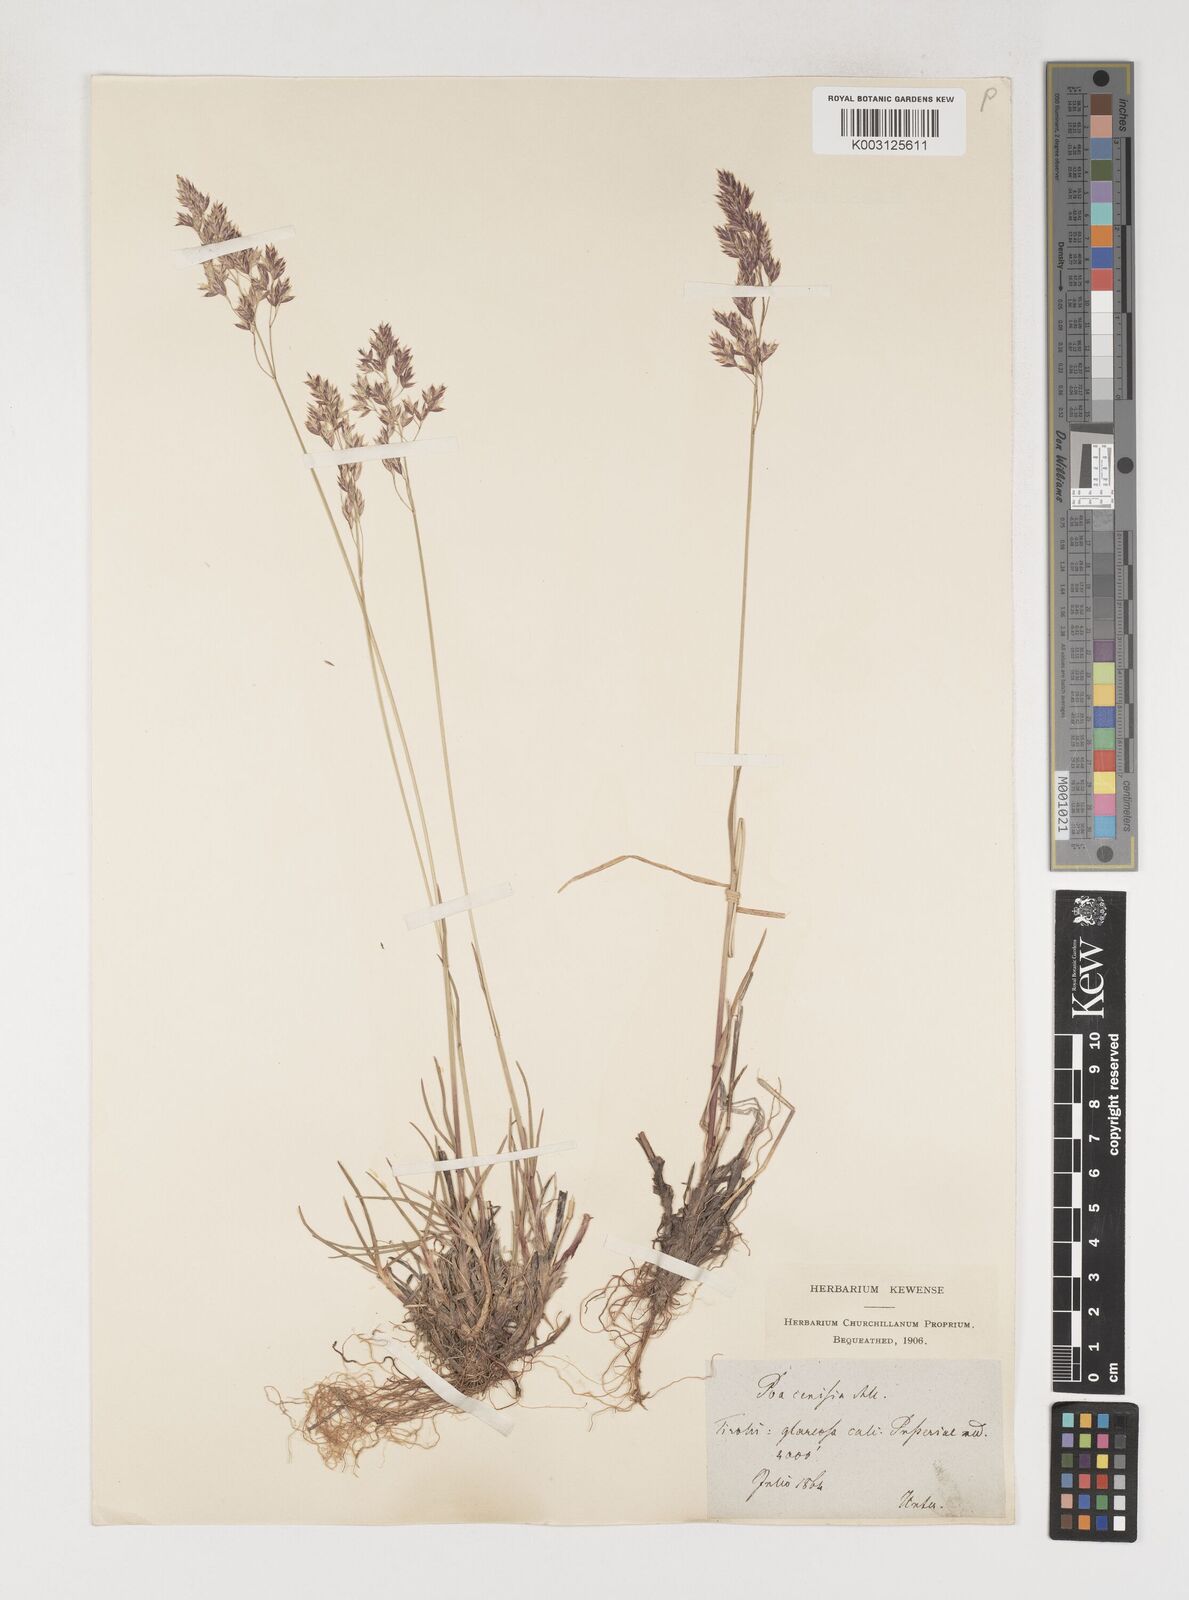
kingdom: Plantae
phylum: Tracheophyta
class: Liliopsida
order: Poales
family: Poaceae
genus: Poa
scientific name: Poa cenisia
